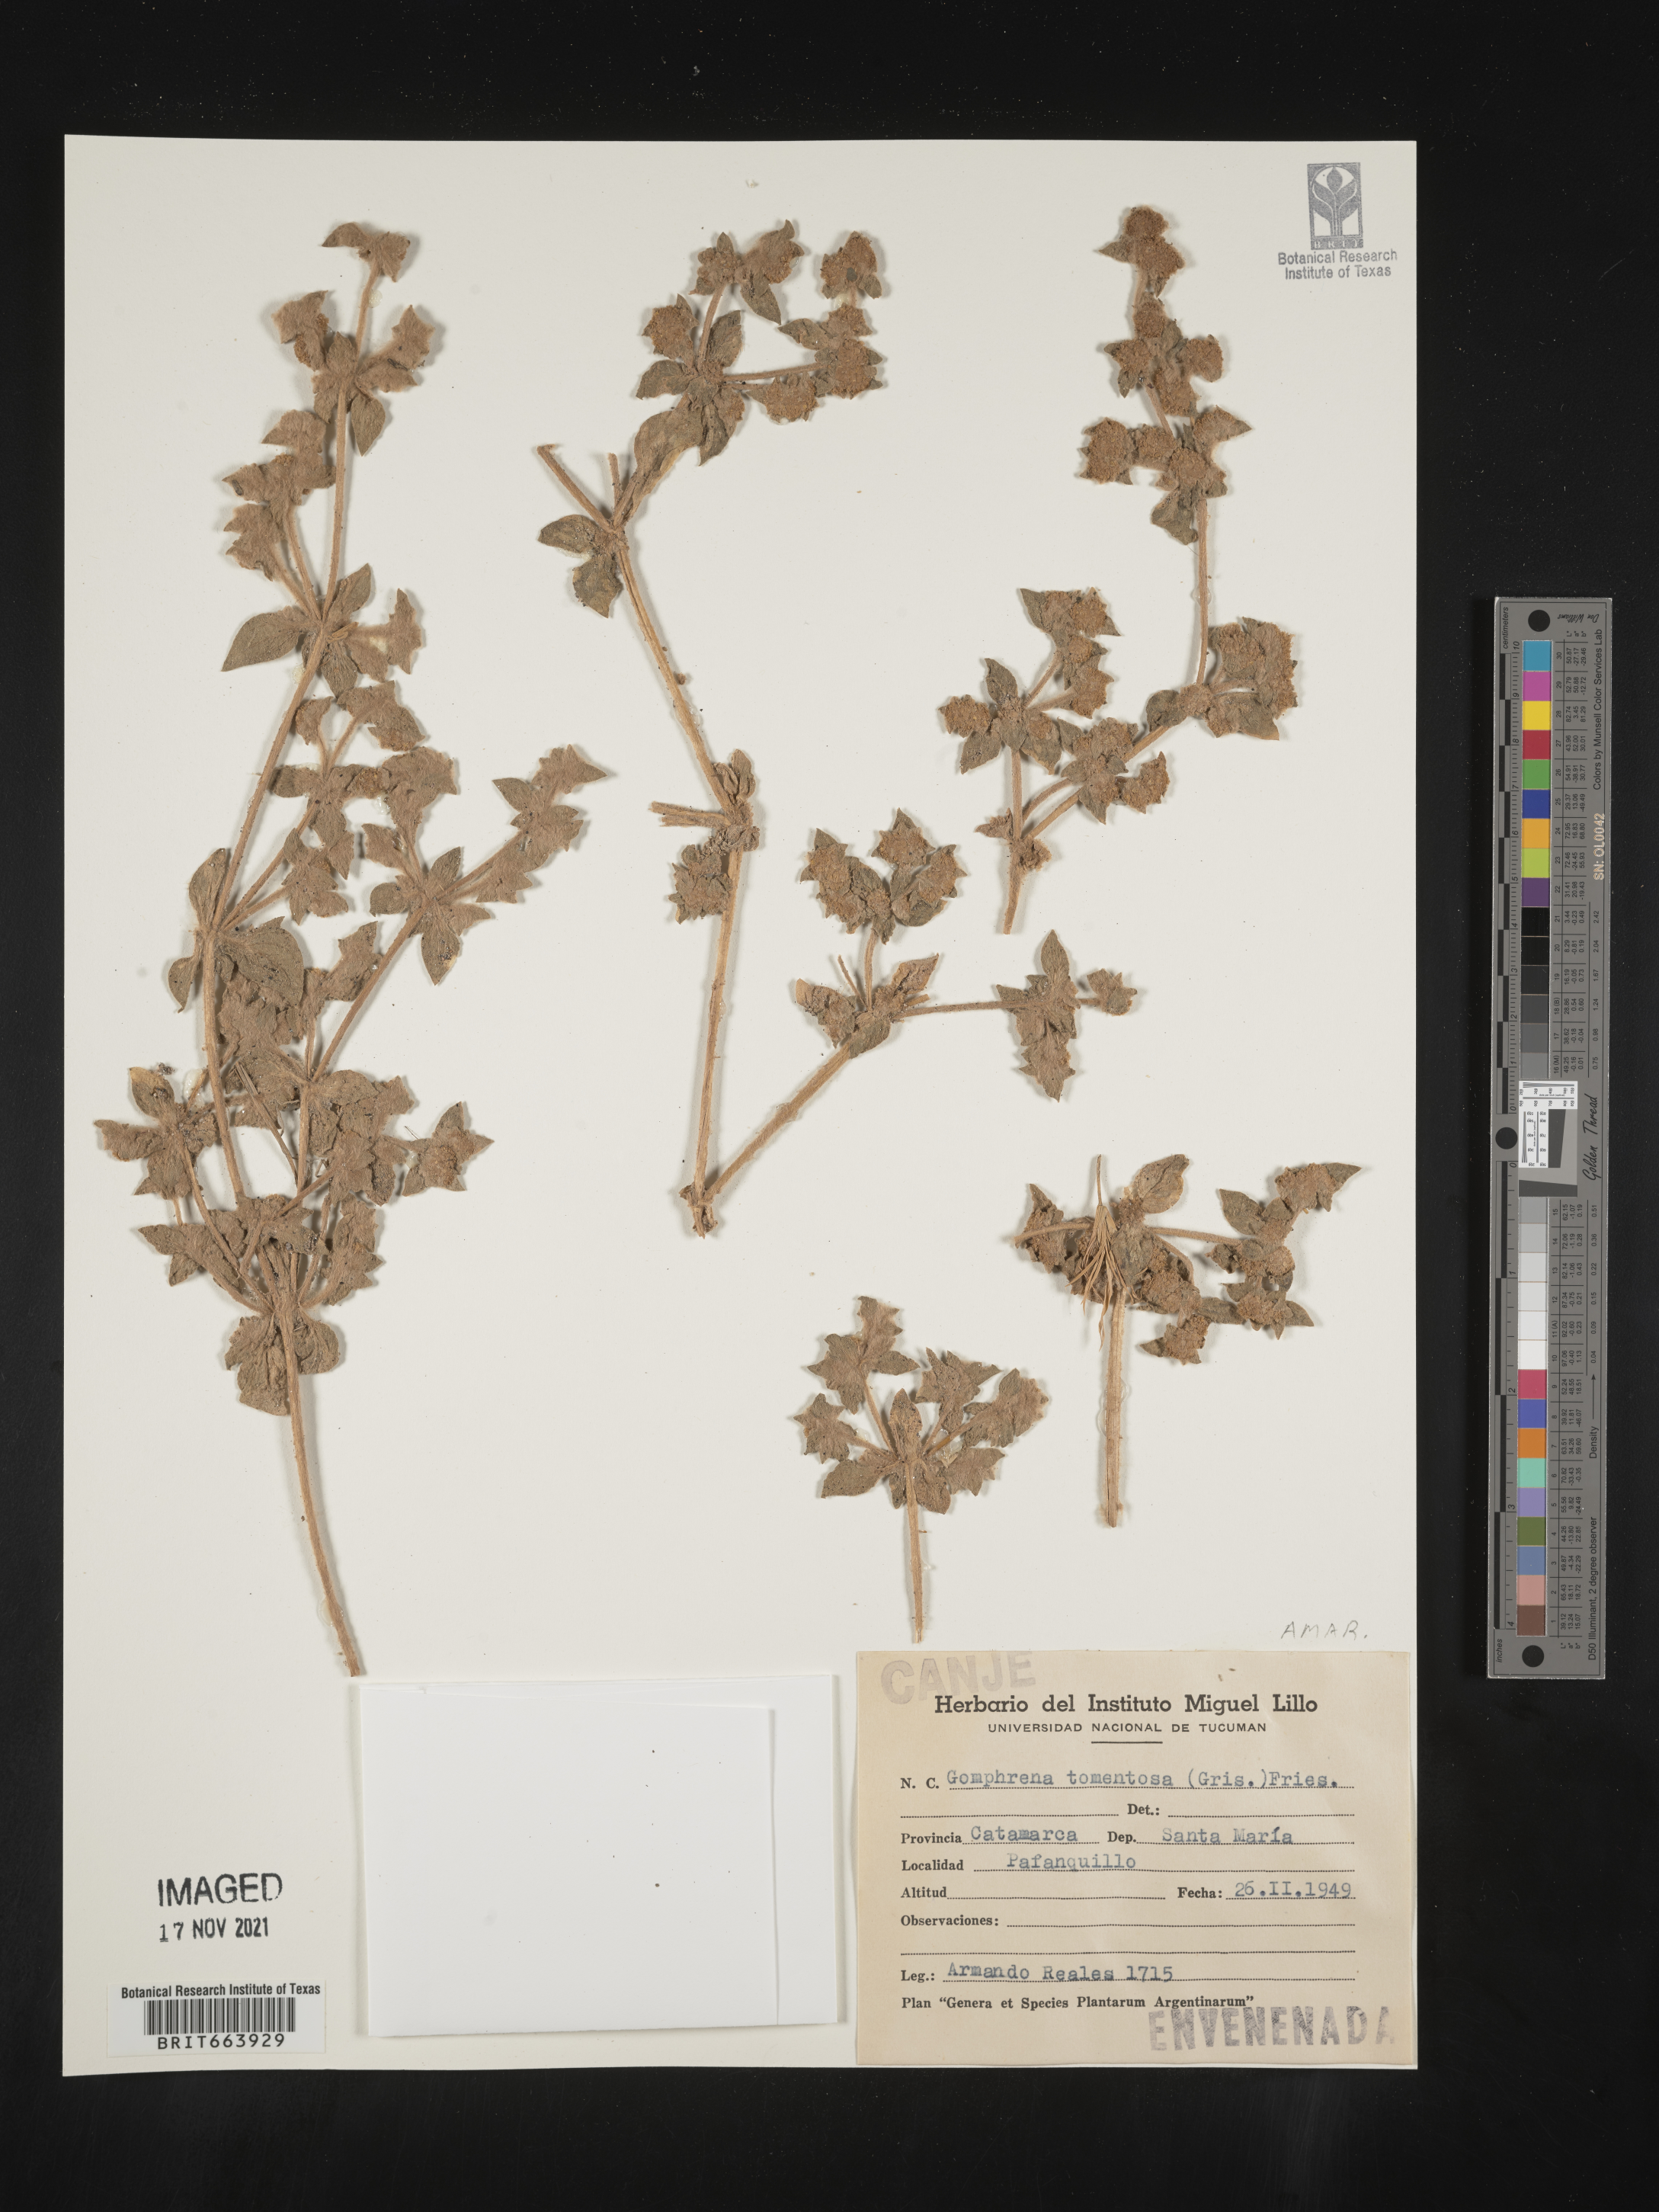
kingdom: Plantae
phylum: Tracheophyta
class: Magnoliopsida
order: Caryophyllales
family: Amaranthaceae
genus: Gomphrena
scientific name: Gomphrena
